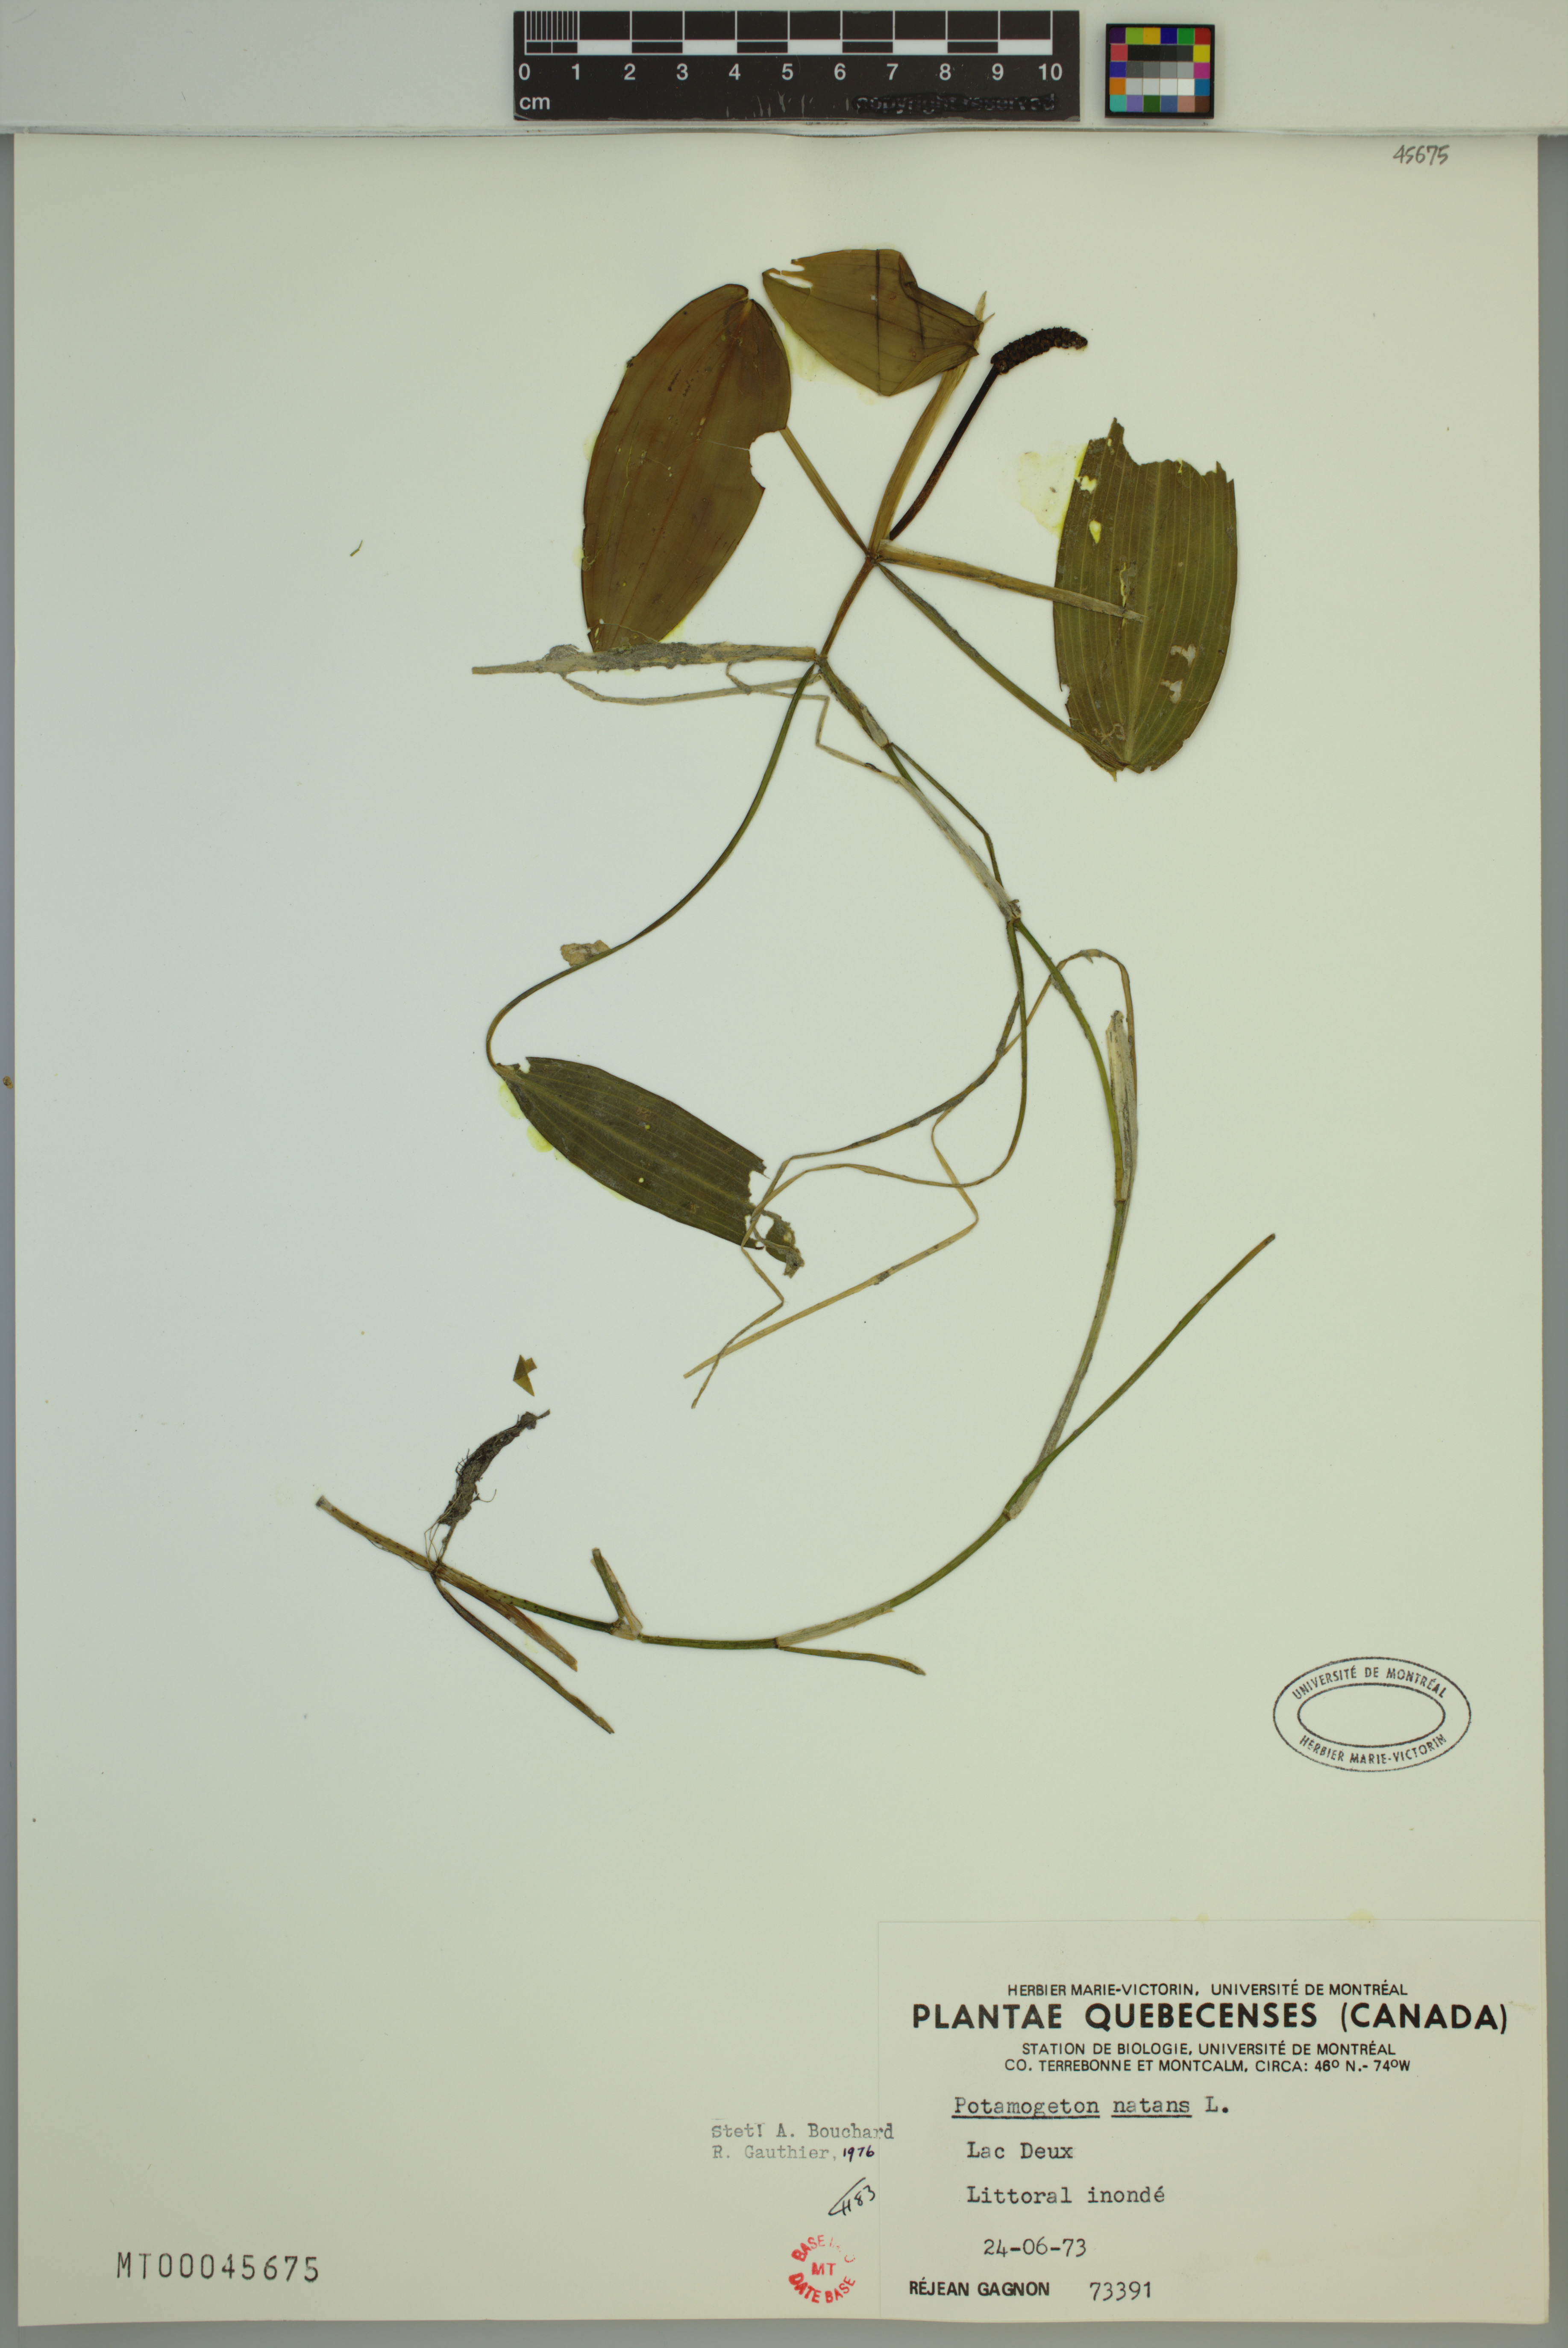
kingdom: Plantae
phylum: Tracheophyta
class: Liliopsida
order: Alismatales
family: Potamogetonaceae
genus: Potamogeton
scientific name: Potamogeton natans
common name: Broad-leaved pondweed
